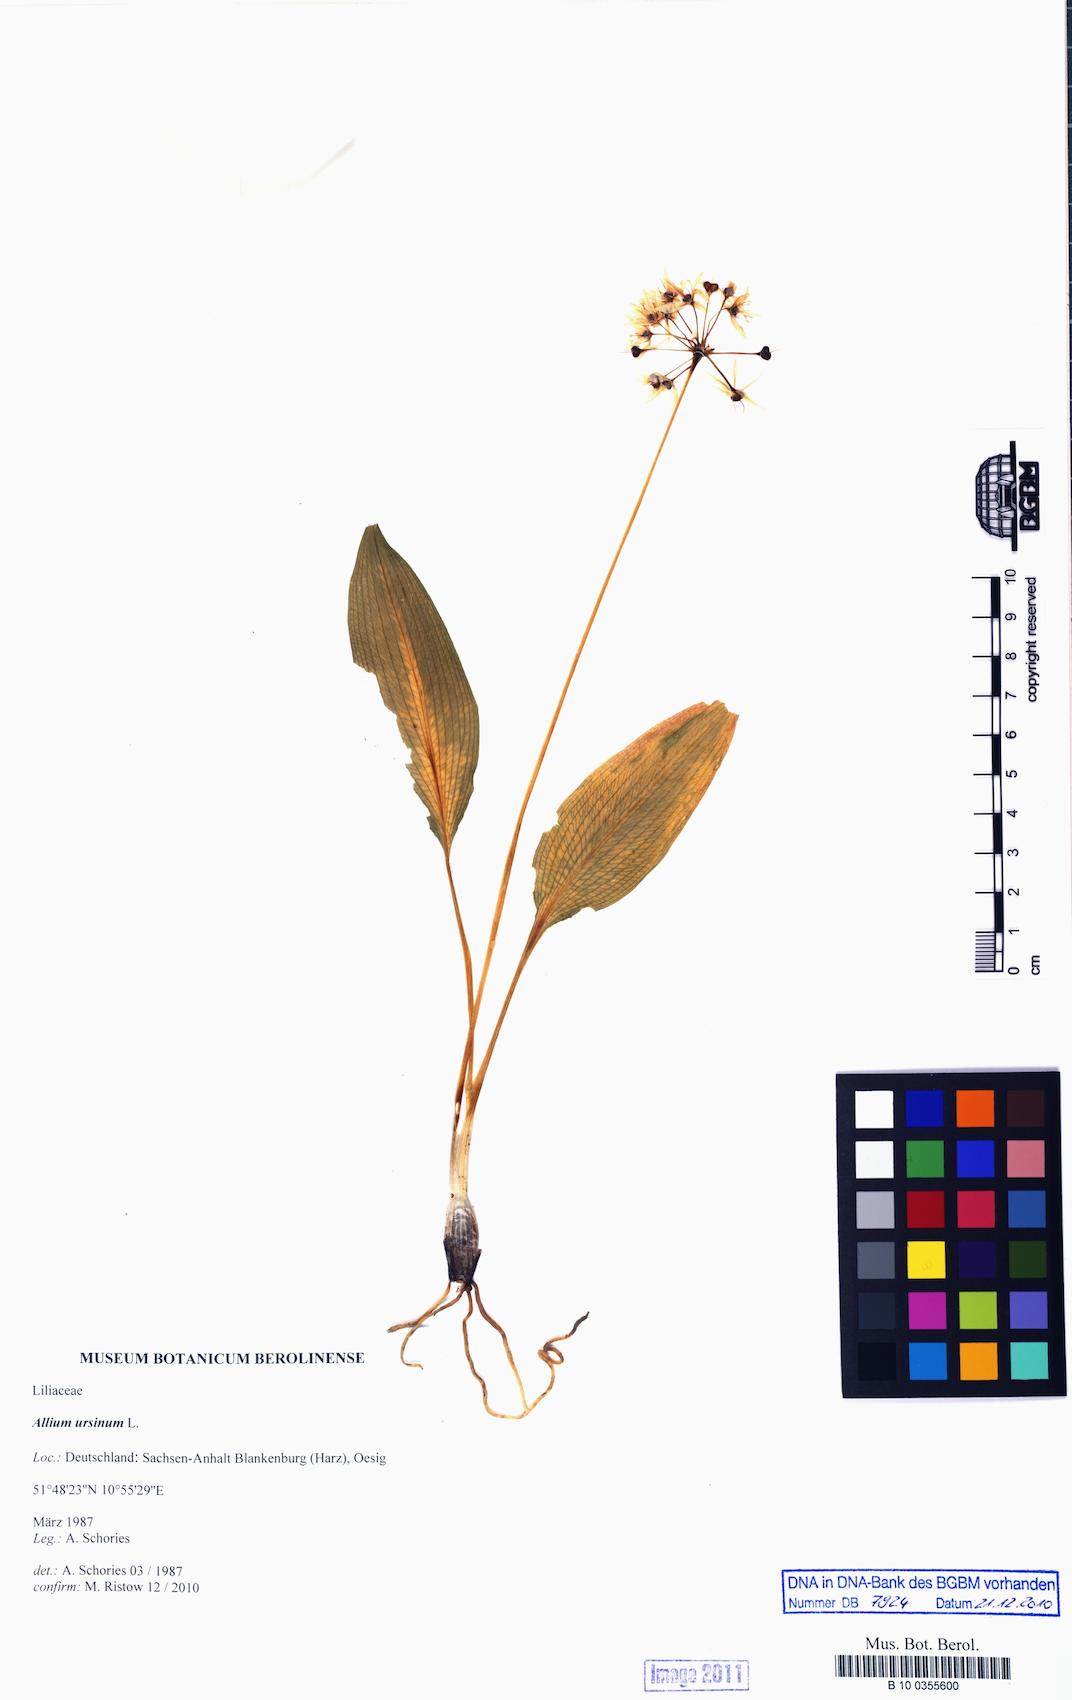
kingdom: Plantae
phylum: Tracheophyta
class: Liliopsida
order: Asparagales
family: Amaryllidaceae
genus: Allium
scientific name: Allium ursinum
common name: Ramsons
